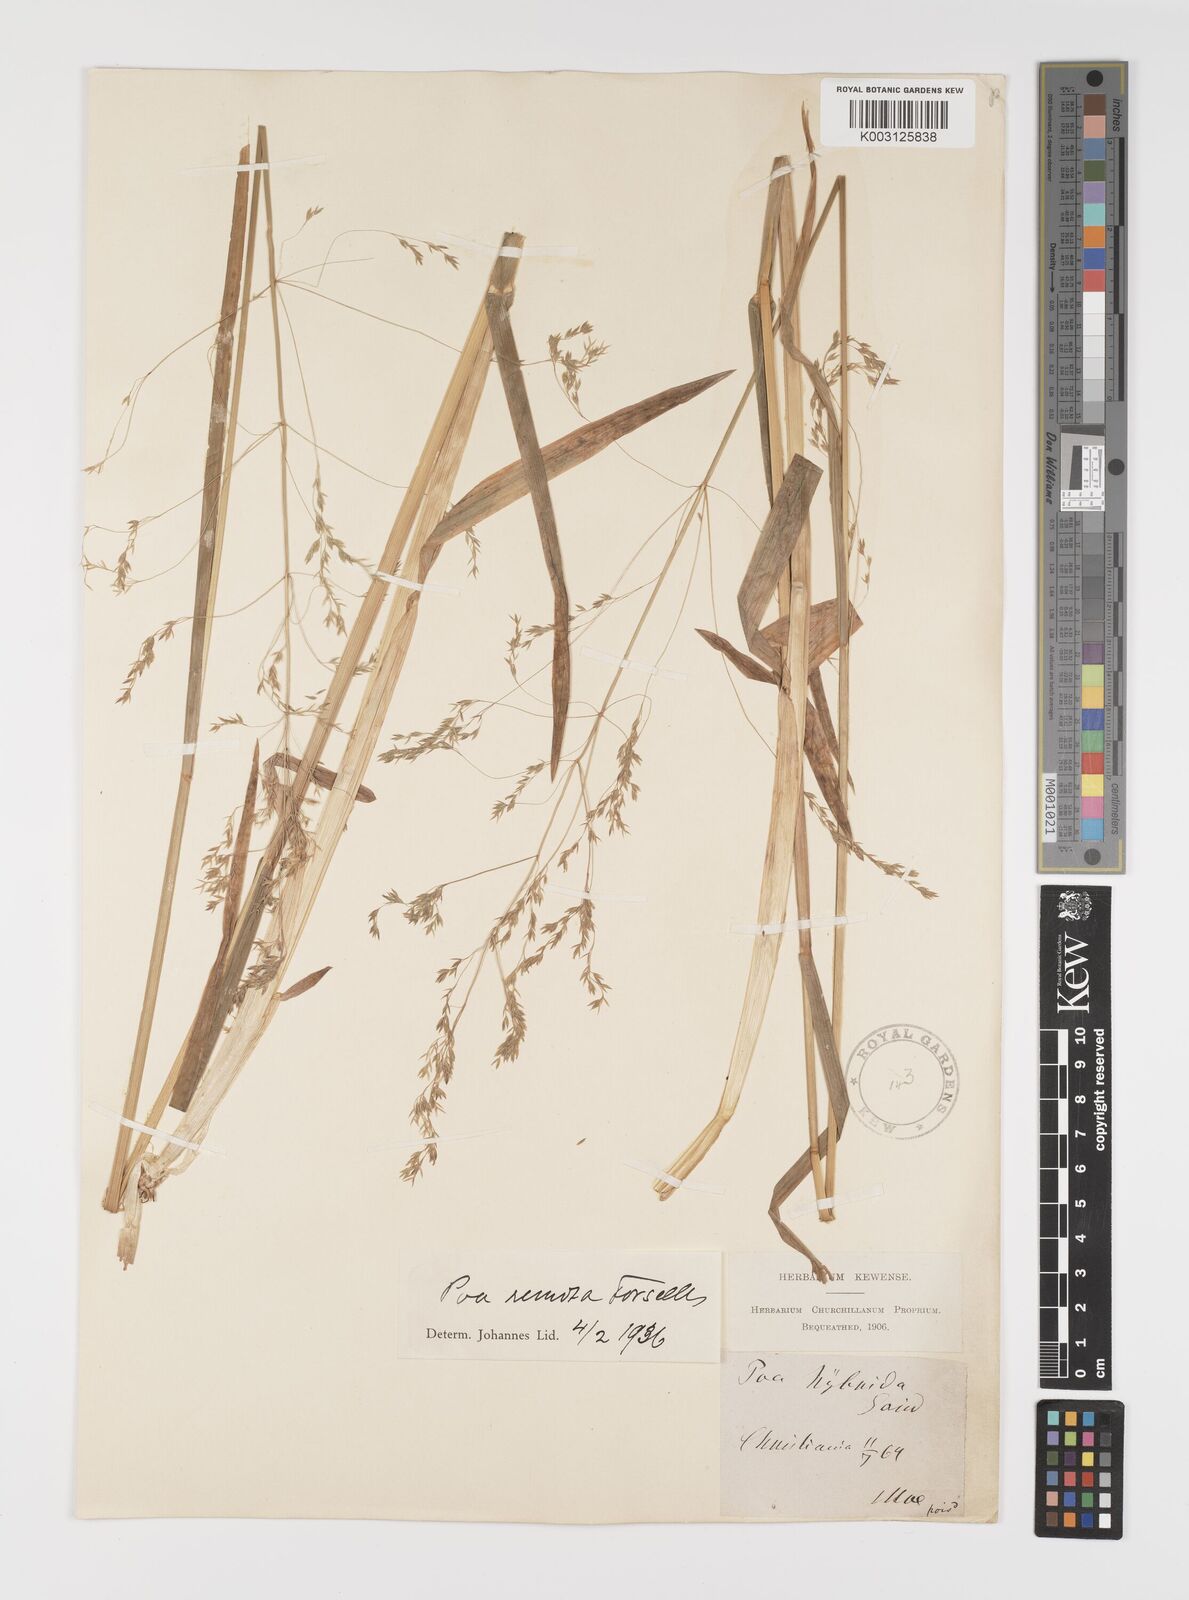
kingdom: Plantae
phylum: Tracheophyta
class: Liliopsida
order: Poales
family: Poaceae
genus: Poa
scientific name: Poa remota
